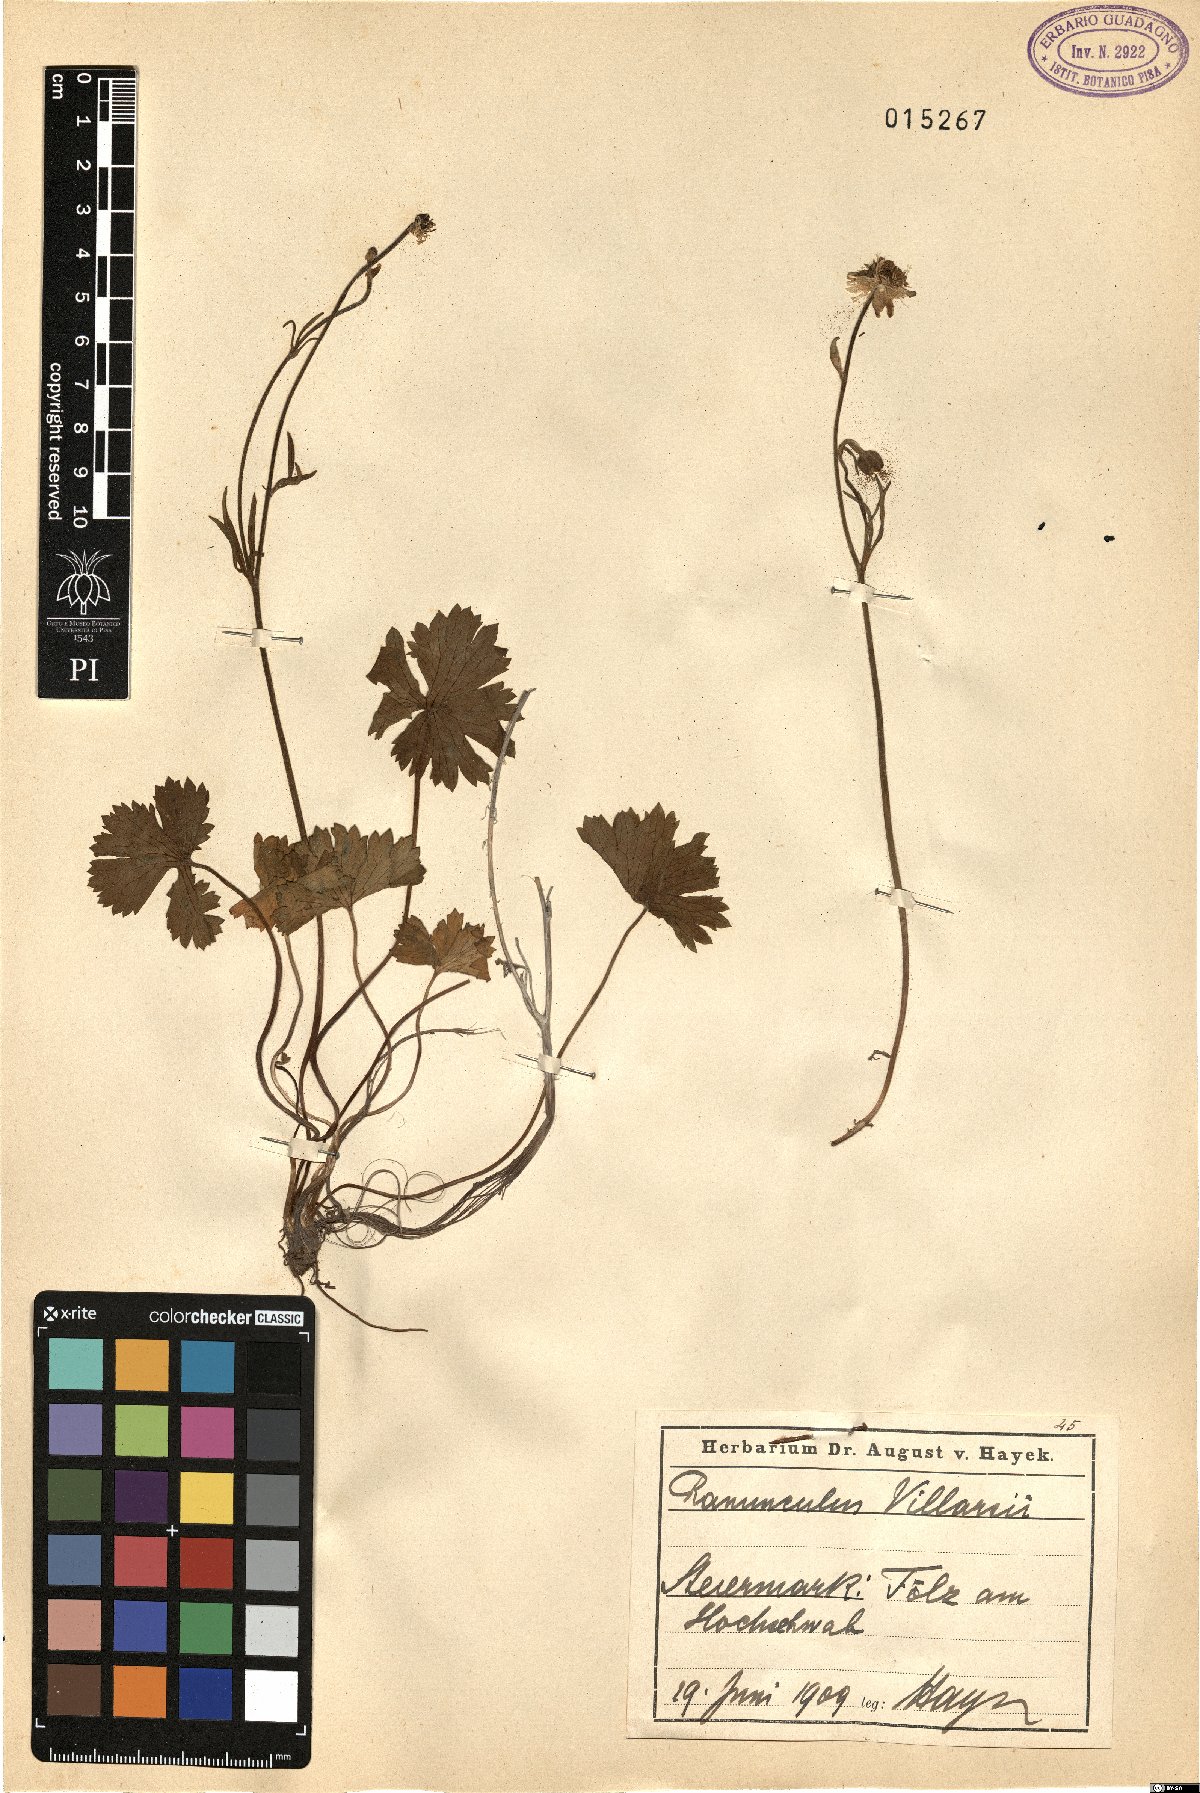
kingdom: Plantae
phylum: Tracheophyta
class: Magnoliopsida
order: Ranunculales
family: Ranunculaceae
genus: Ranunculus
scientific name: Ranunculus villarsii
